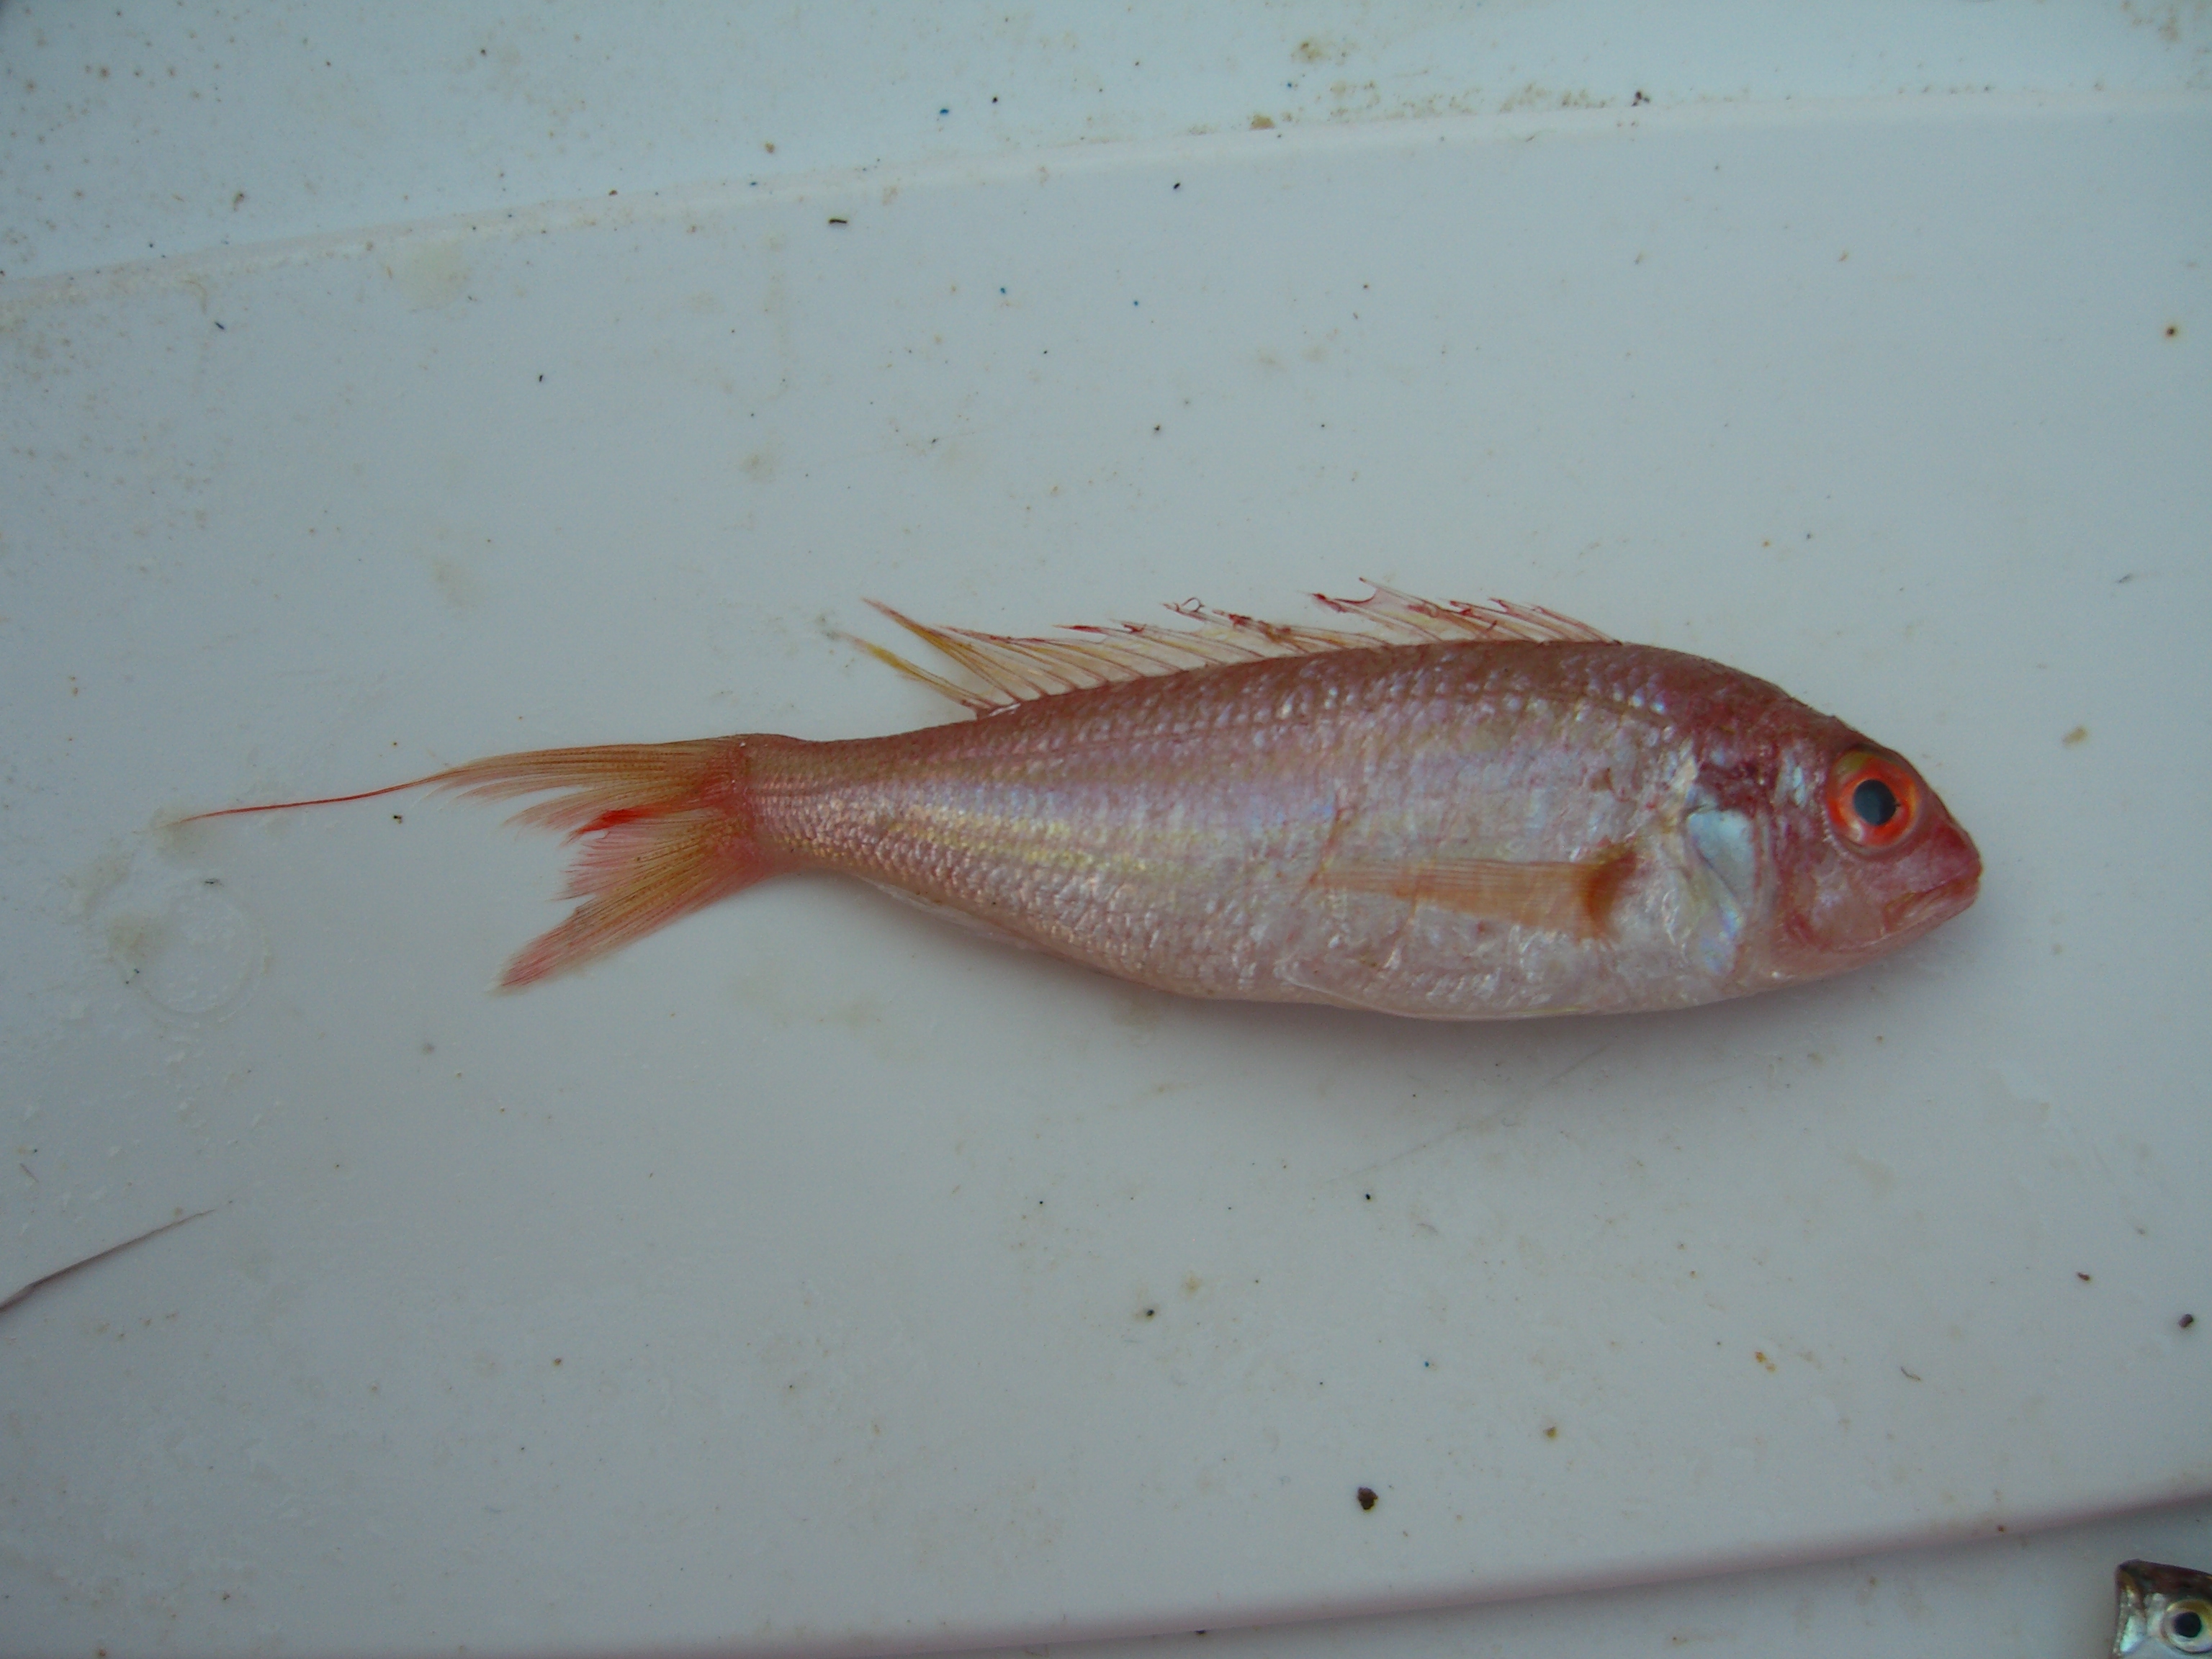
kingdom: Animalia
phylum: Chordata
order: Perciformes
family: Nemipteridae
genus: Nemipterus
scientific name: Nemipterus randalli
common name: Randall's threadfin bream
